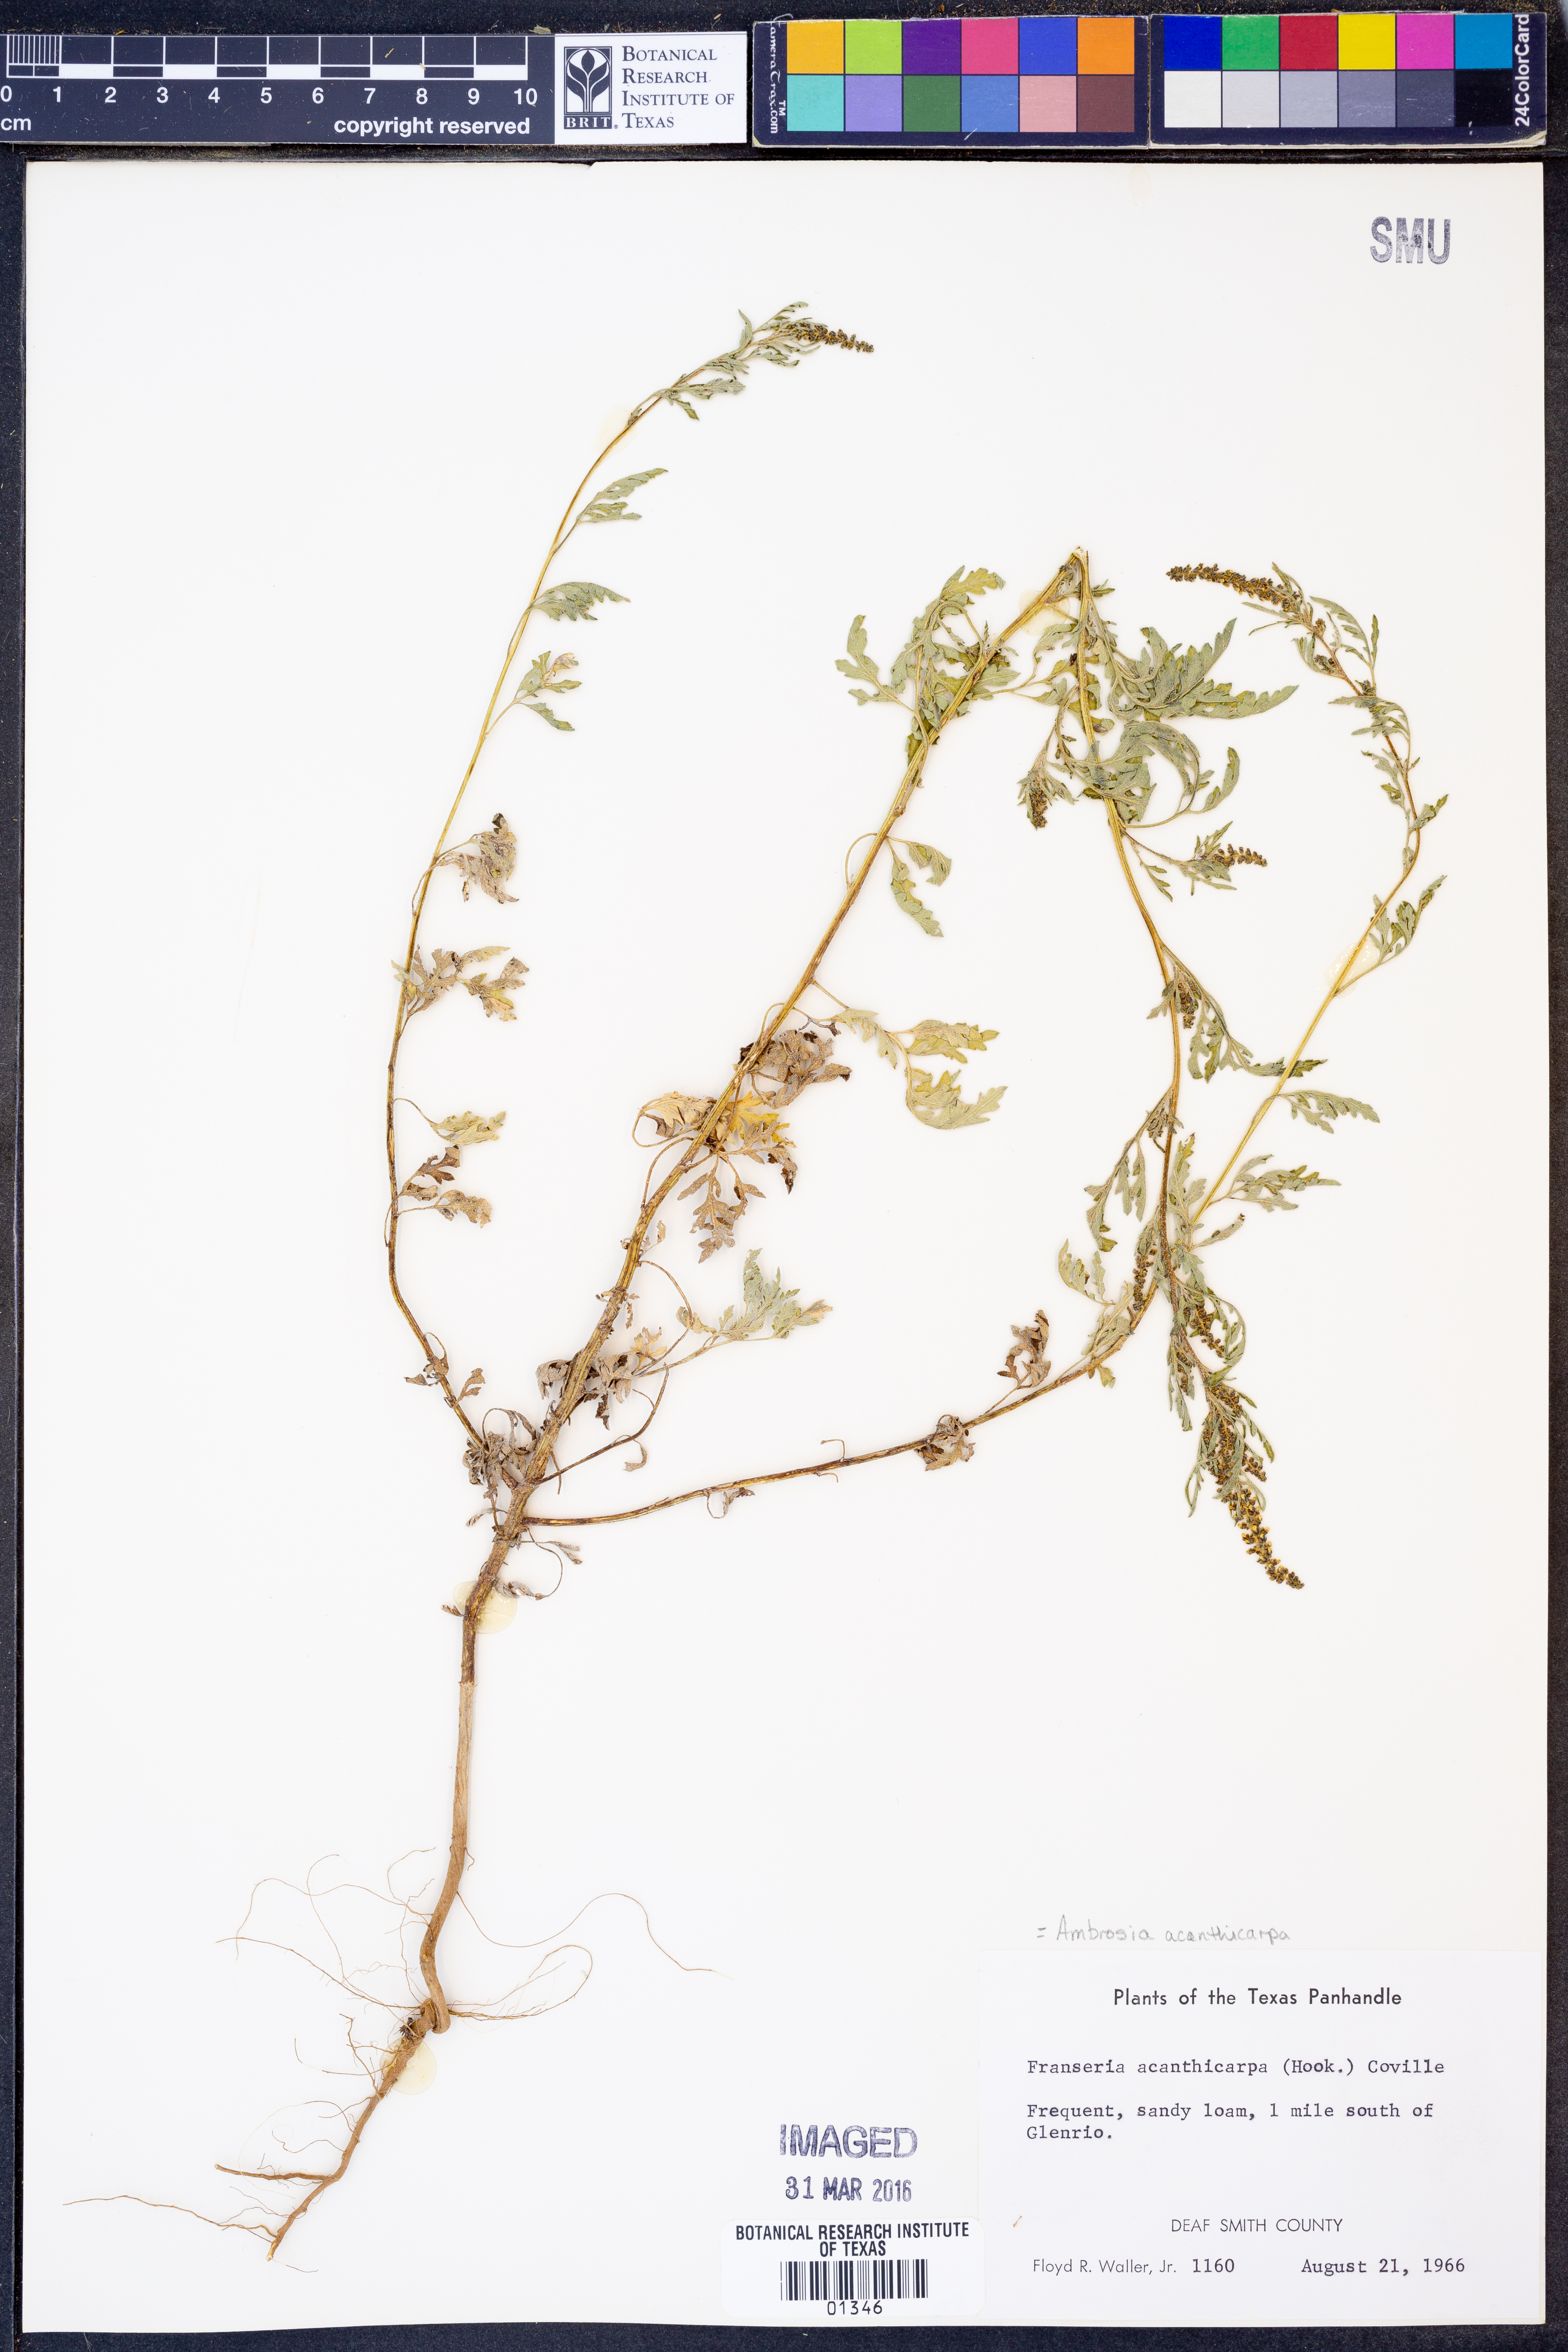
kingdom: Plantae
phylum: Tracheophyta
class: Magnoliopsida
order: Asterales
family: Asteraceae
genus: Ambrosia
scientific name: Ambrosia acanthicarpa
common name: Hooker's bur ragweed
